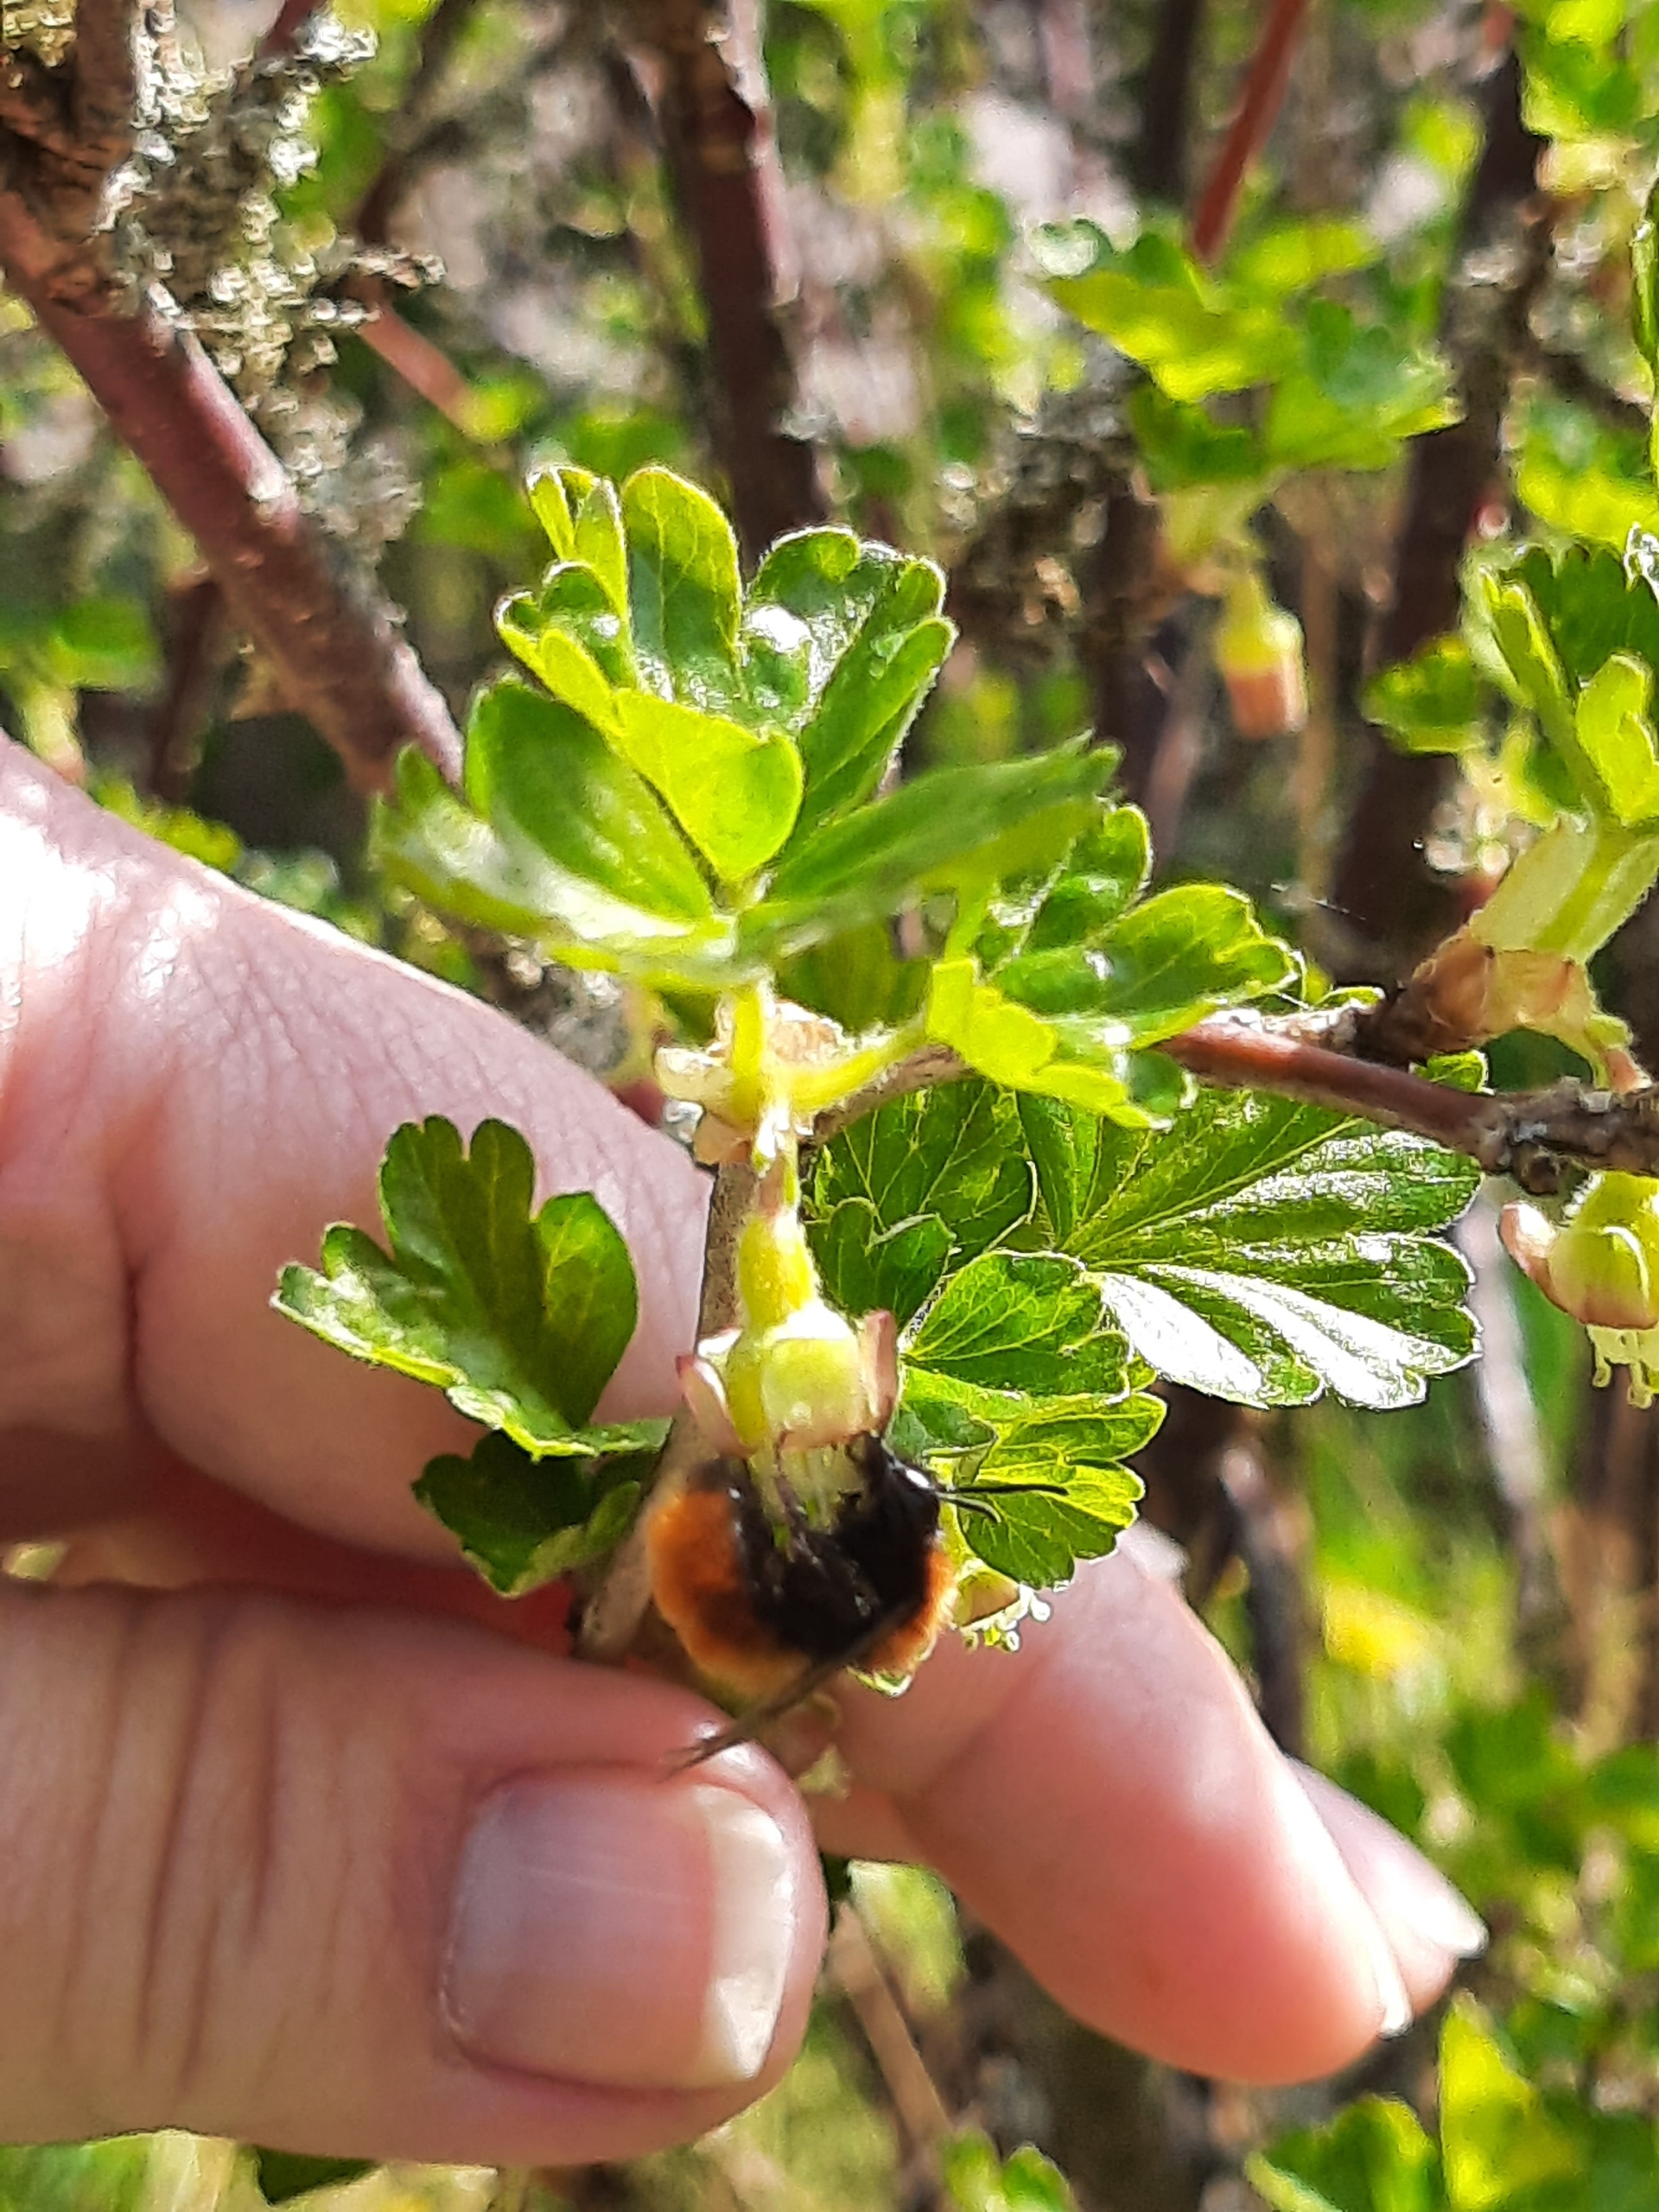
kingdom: Animalia
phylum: Arthropoda
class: Insecta
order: Hymenoptera
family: Andrenidae
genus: Andrena
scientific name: Andrena fulva
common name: Rødpelset jordbi
